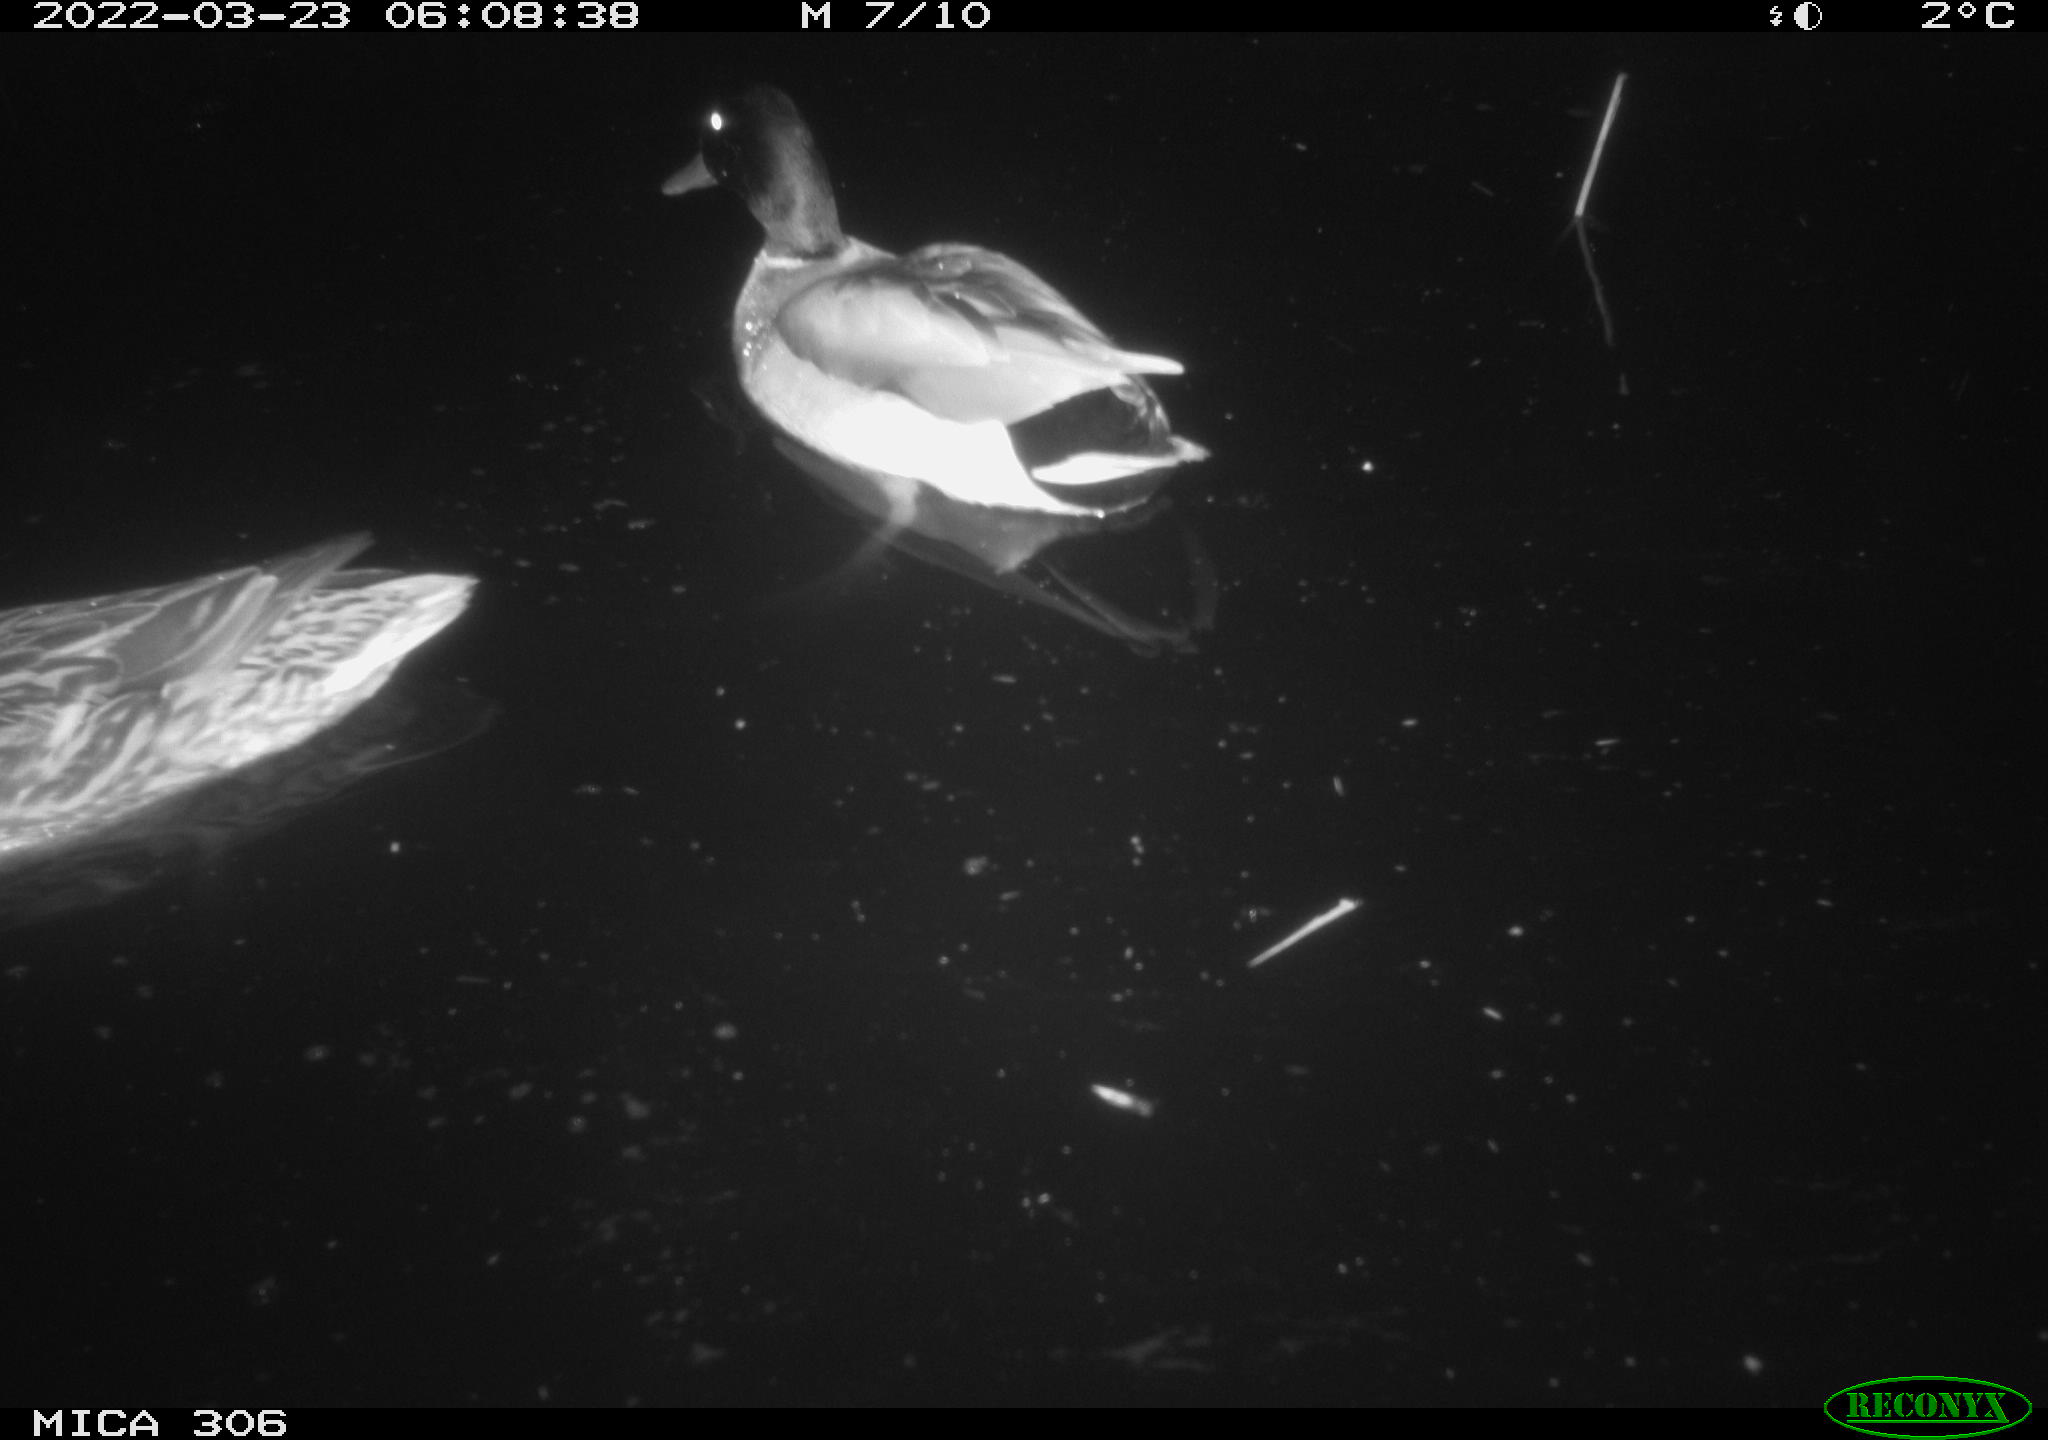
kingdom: Animalia
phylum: Chordata
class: Aves
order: Anseriformes
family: Anatidae
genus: Anas
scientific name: Anas platyrhynchos
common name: Mallard
